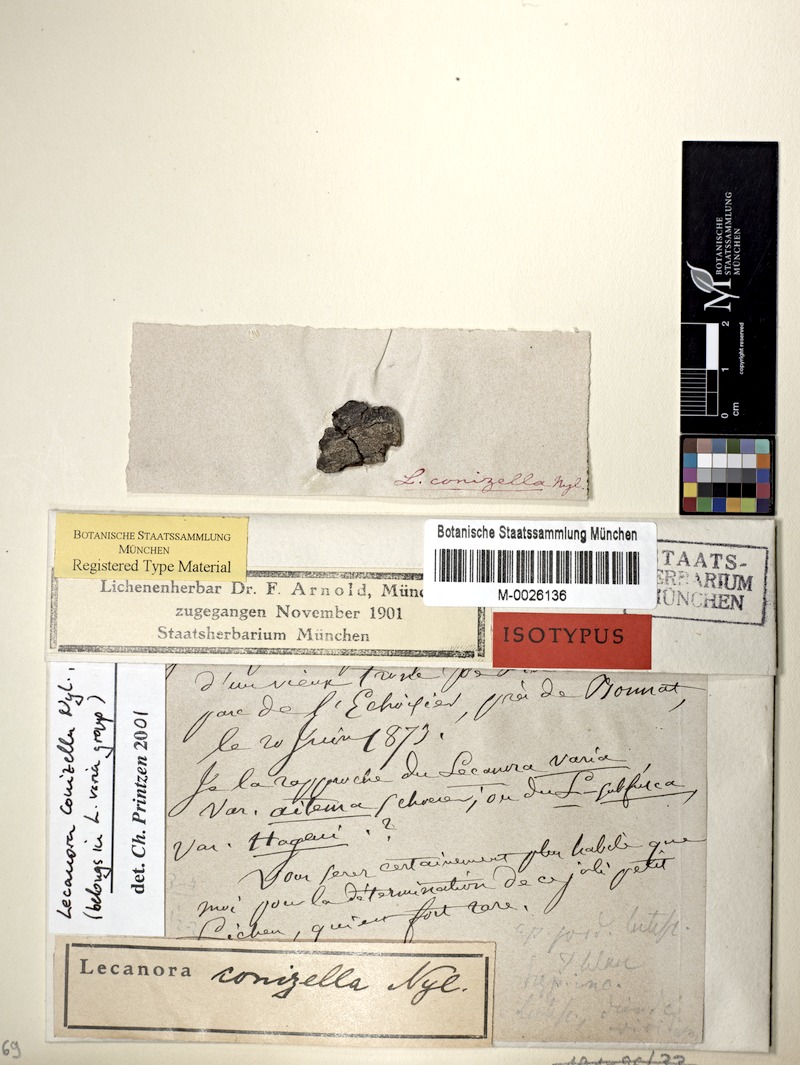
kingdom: Fungi
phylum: Ascomycota
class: Lecanoromycetes
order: Lecanorales
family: Lecanoraceae
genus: Lecanora
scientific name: Lecanora conizella
